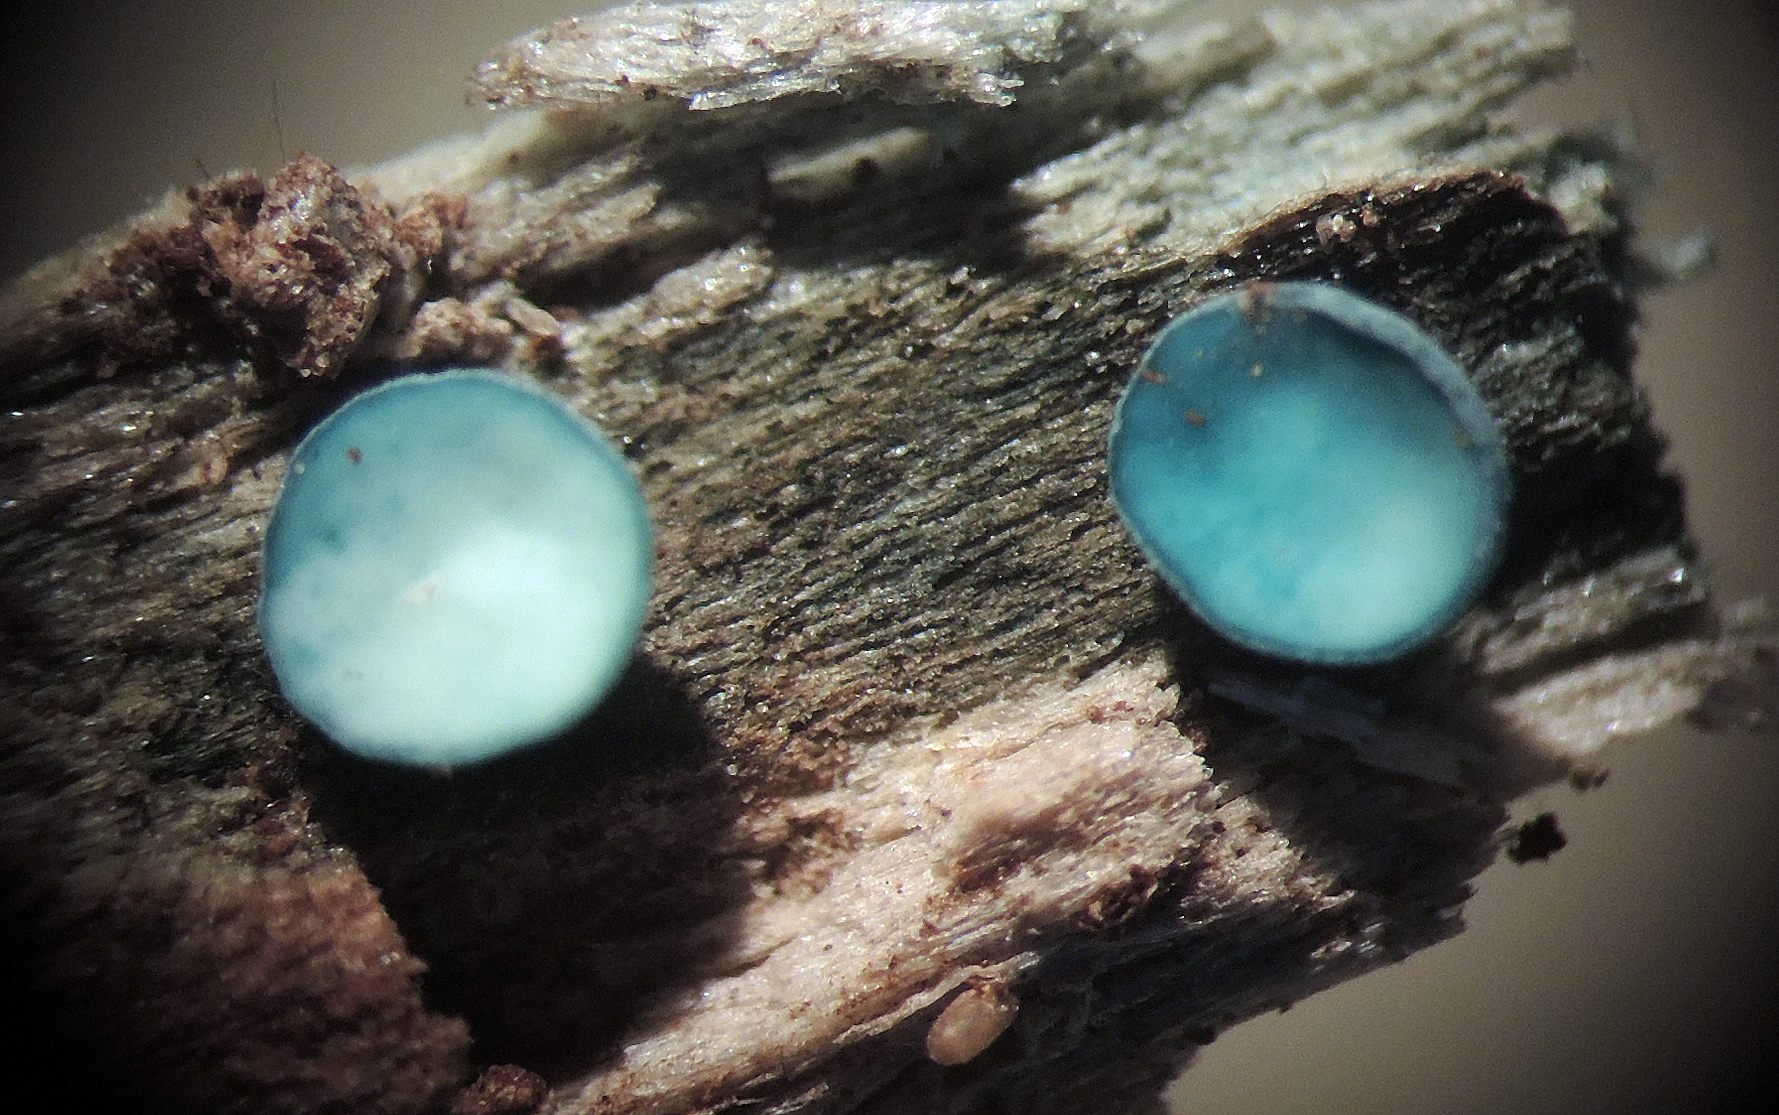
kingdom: Fungi
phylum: Ascomycota
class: Leotiomycetes
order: Helotiales
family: Chlorociboriaceae
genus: Chlorociboria
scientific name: Chlorociboria aeruginascens
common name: almindelig grønskive
